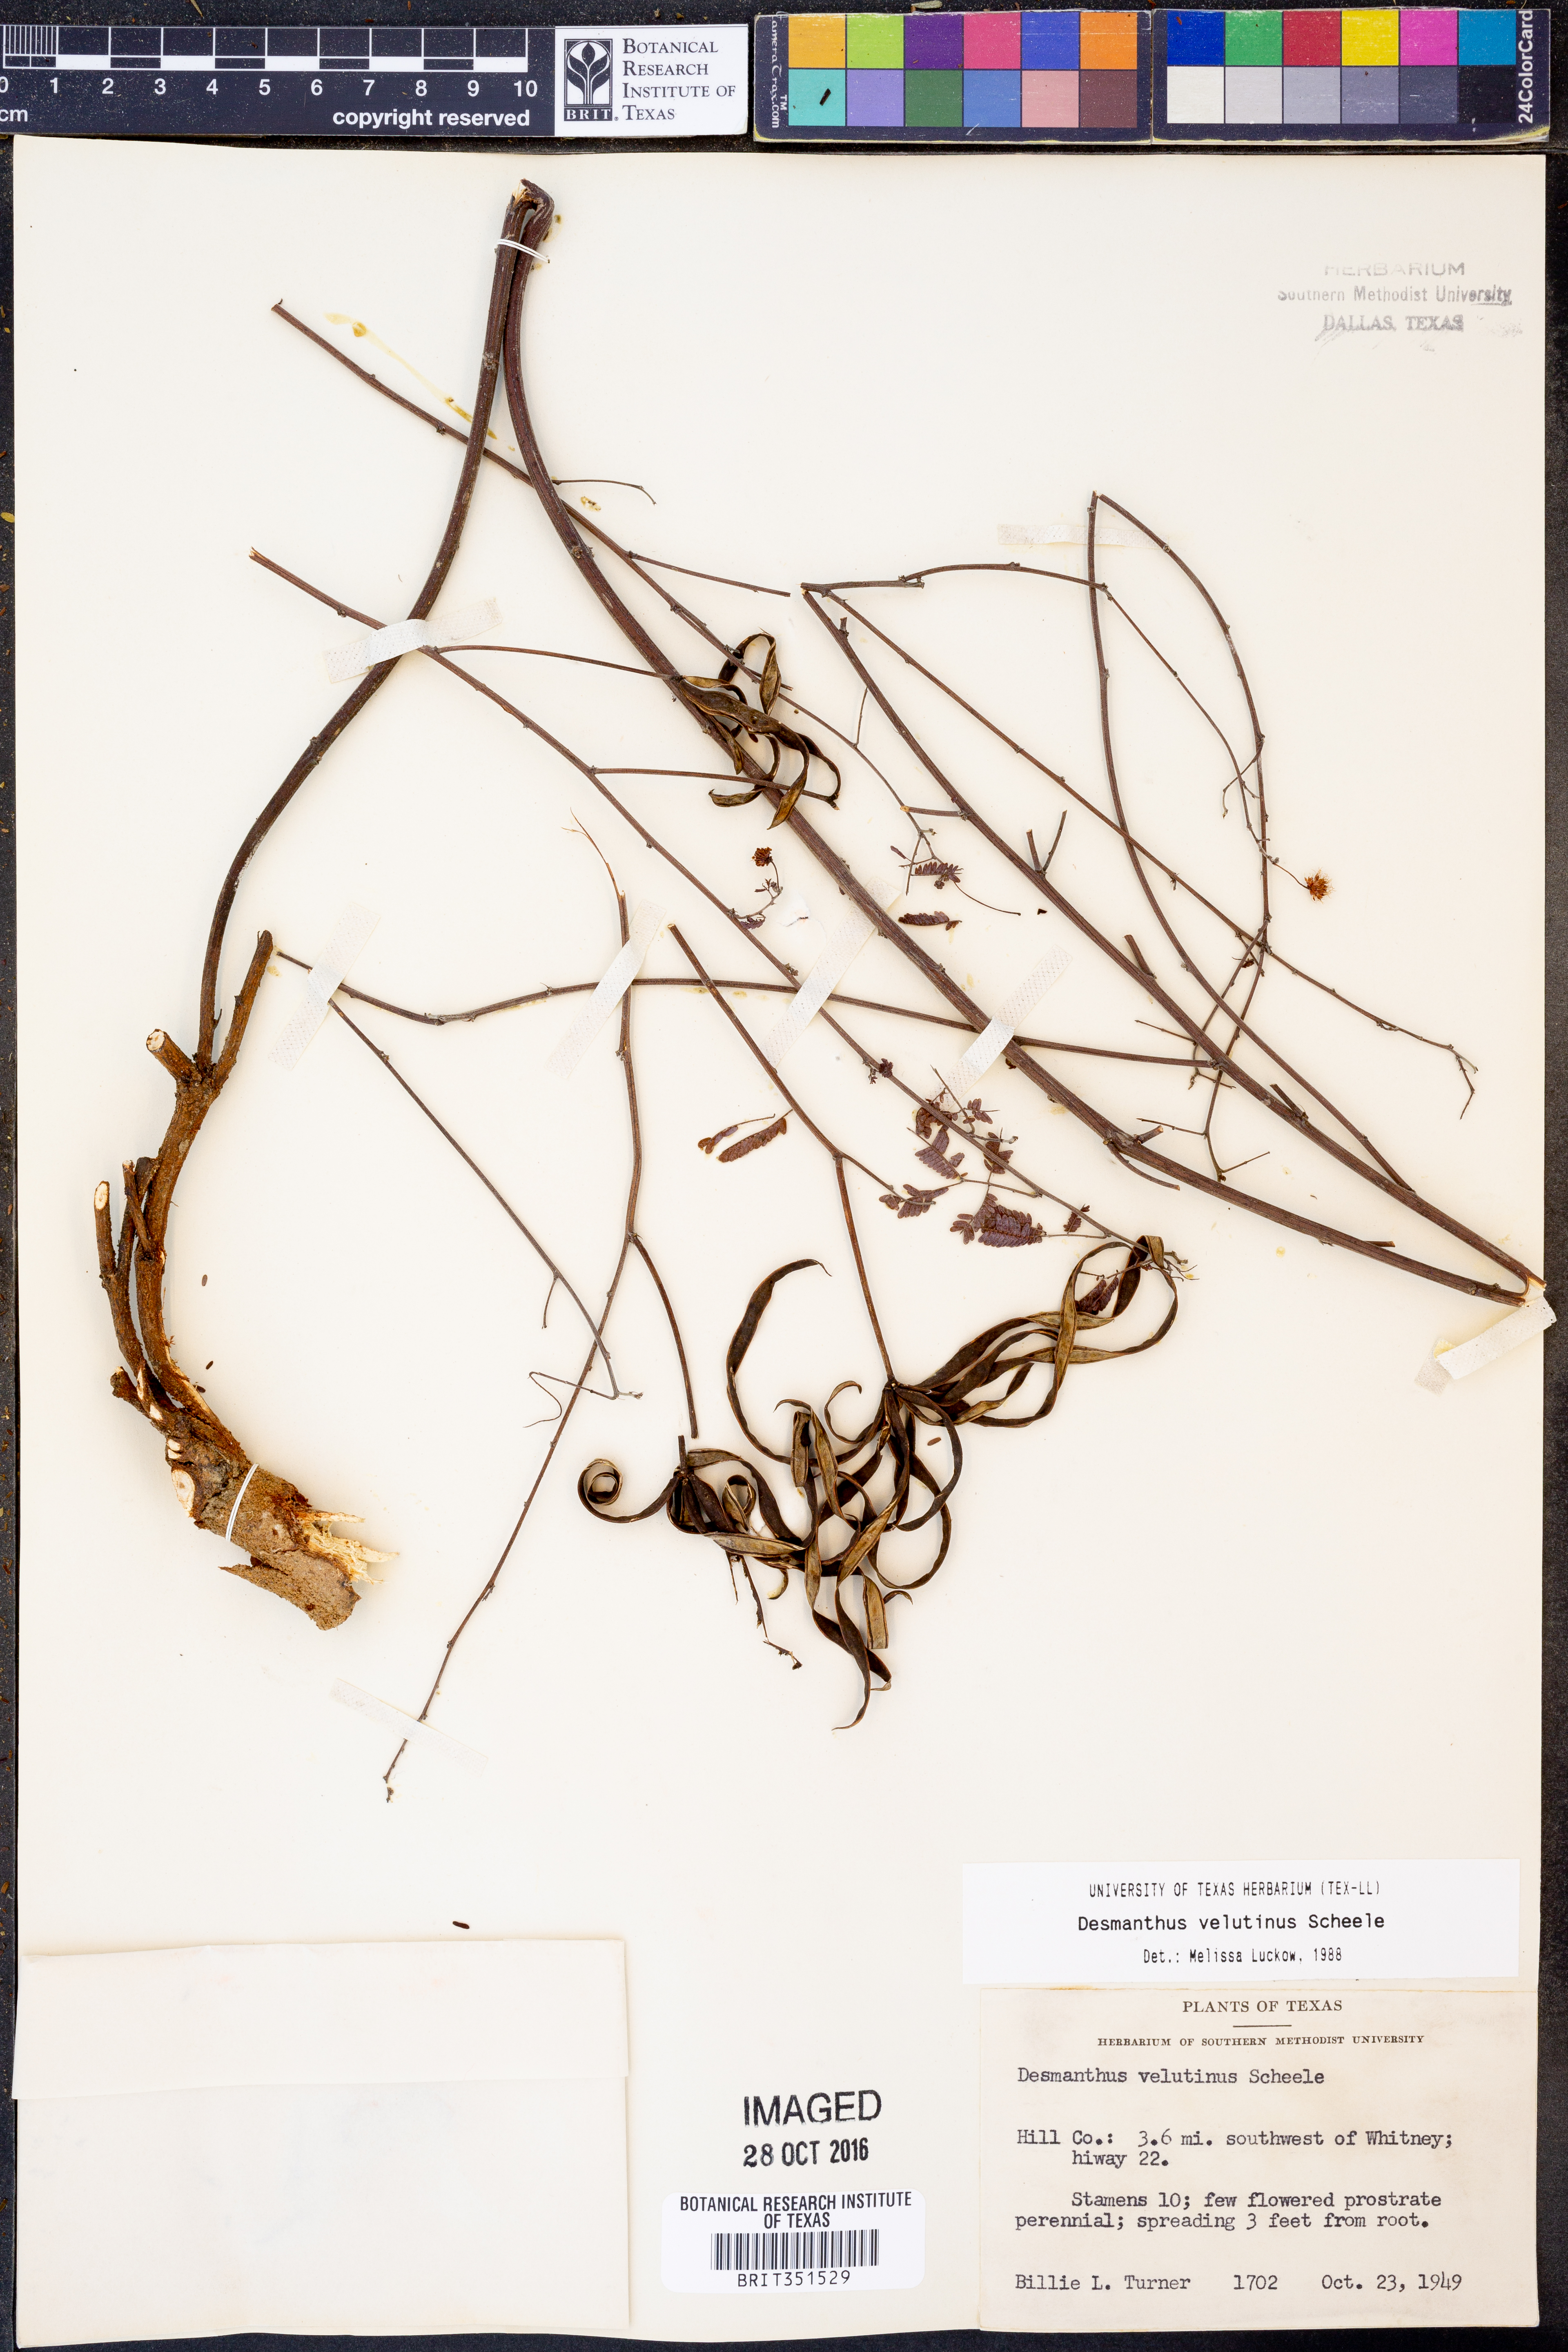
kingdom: Plantae
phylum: Tracheophyta
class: Magnoliopsida
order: Fabales
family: Fabaceae
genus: Desmanthus
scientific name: Desmanthus velutinus
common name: Velvet bundle-flower
